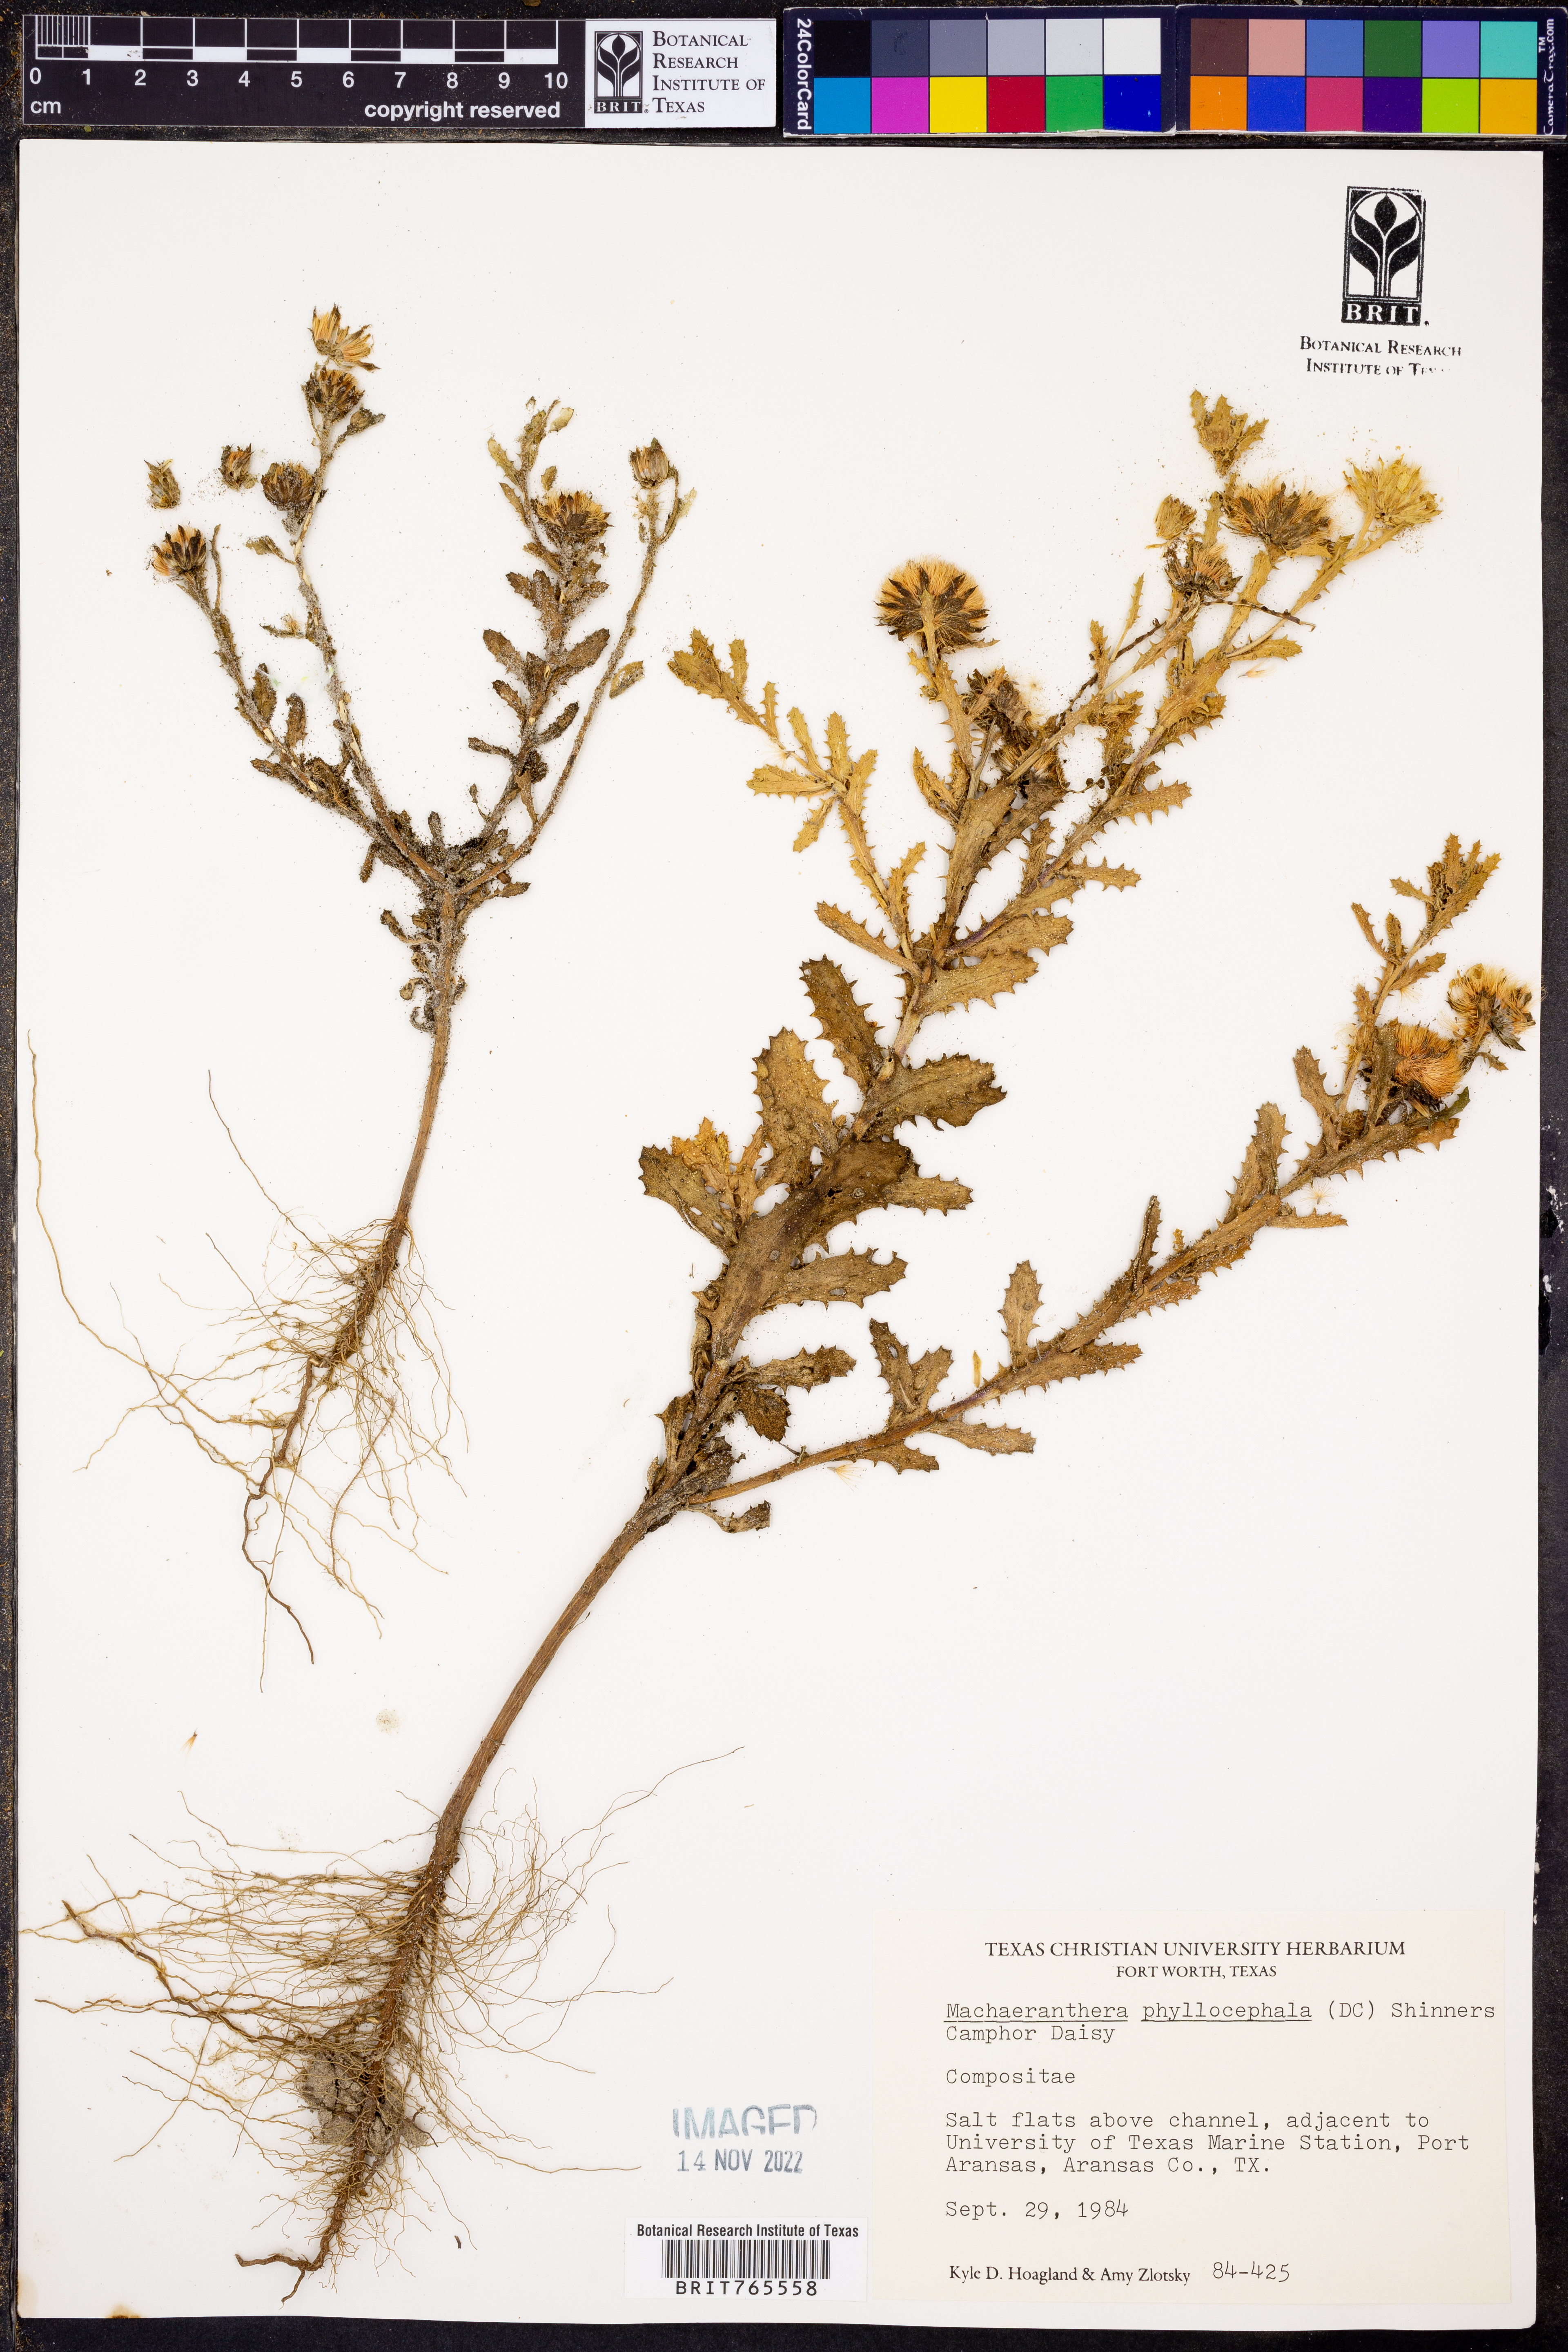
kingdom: Plantae
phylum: Tracheophyta
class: Magnoliopsida
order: Asterales
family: Asteraceae
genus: Rayjacksonia
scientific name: Rayjacksonia phyllocephala
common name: Gulf coast camphor daisy
